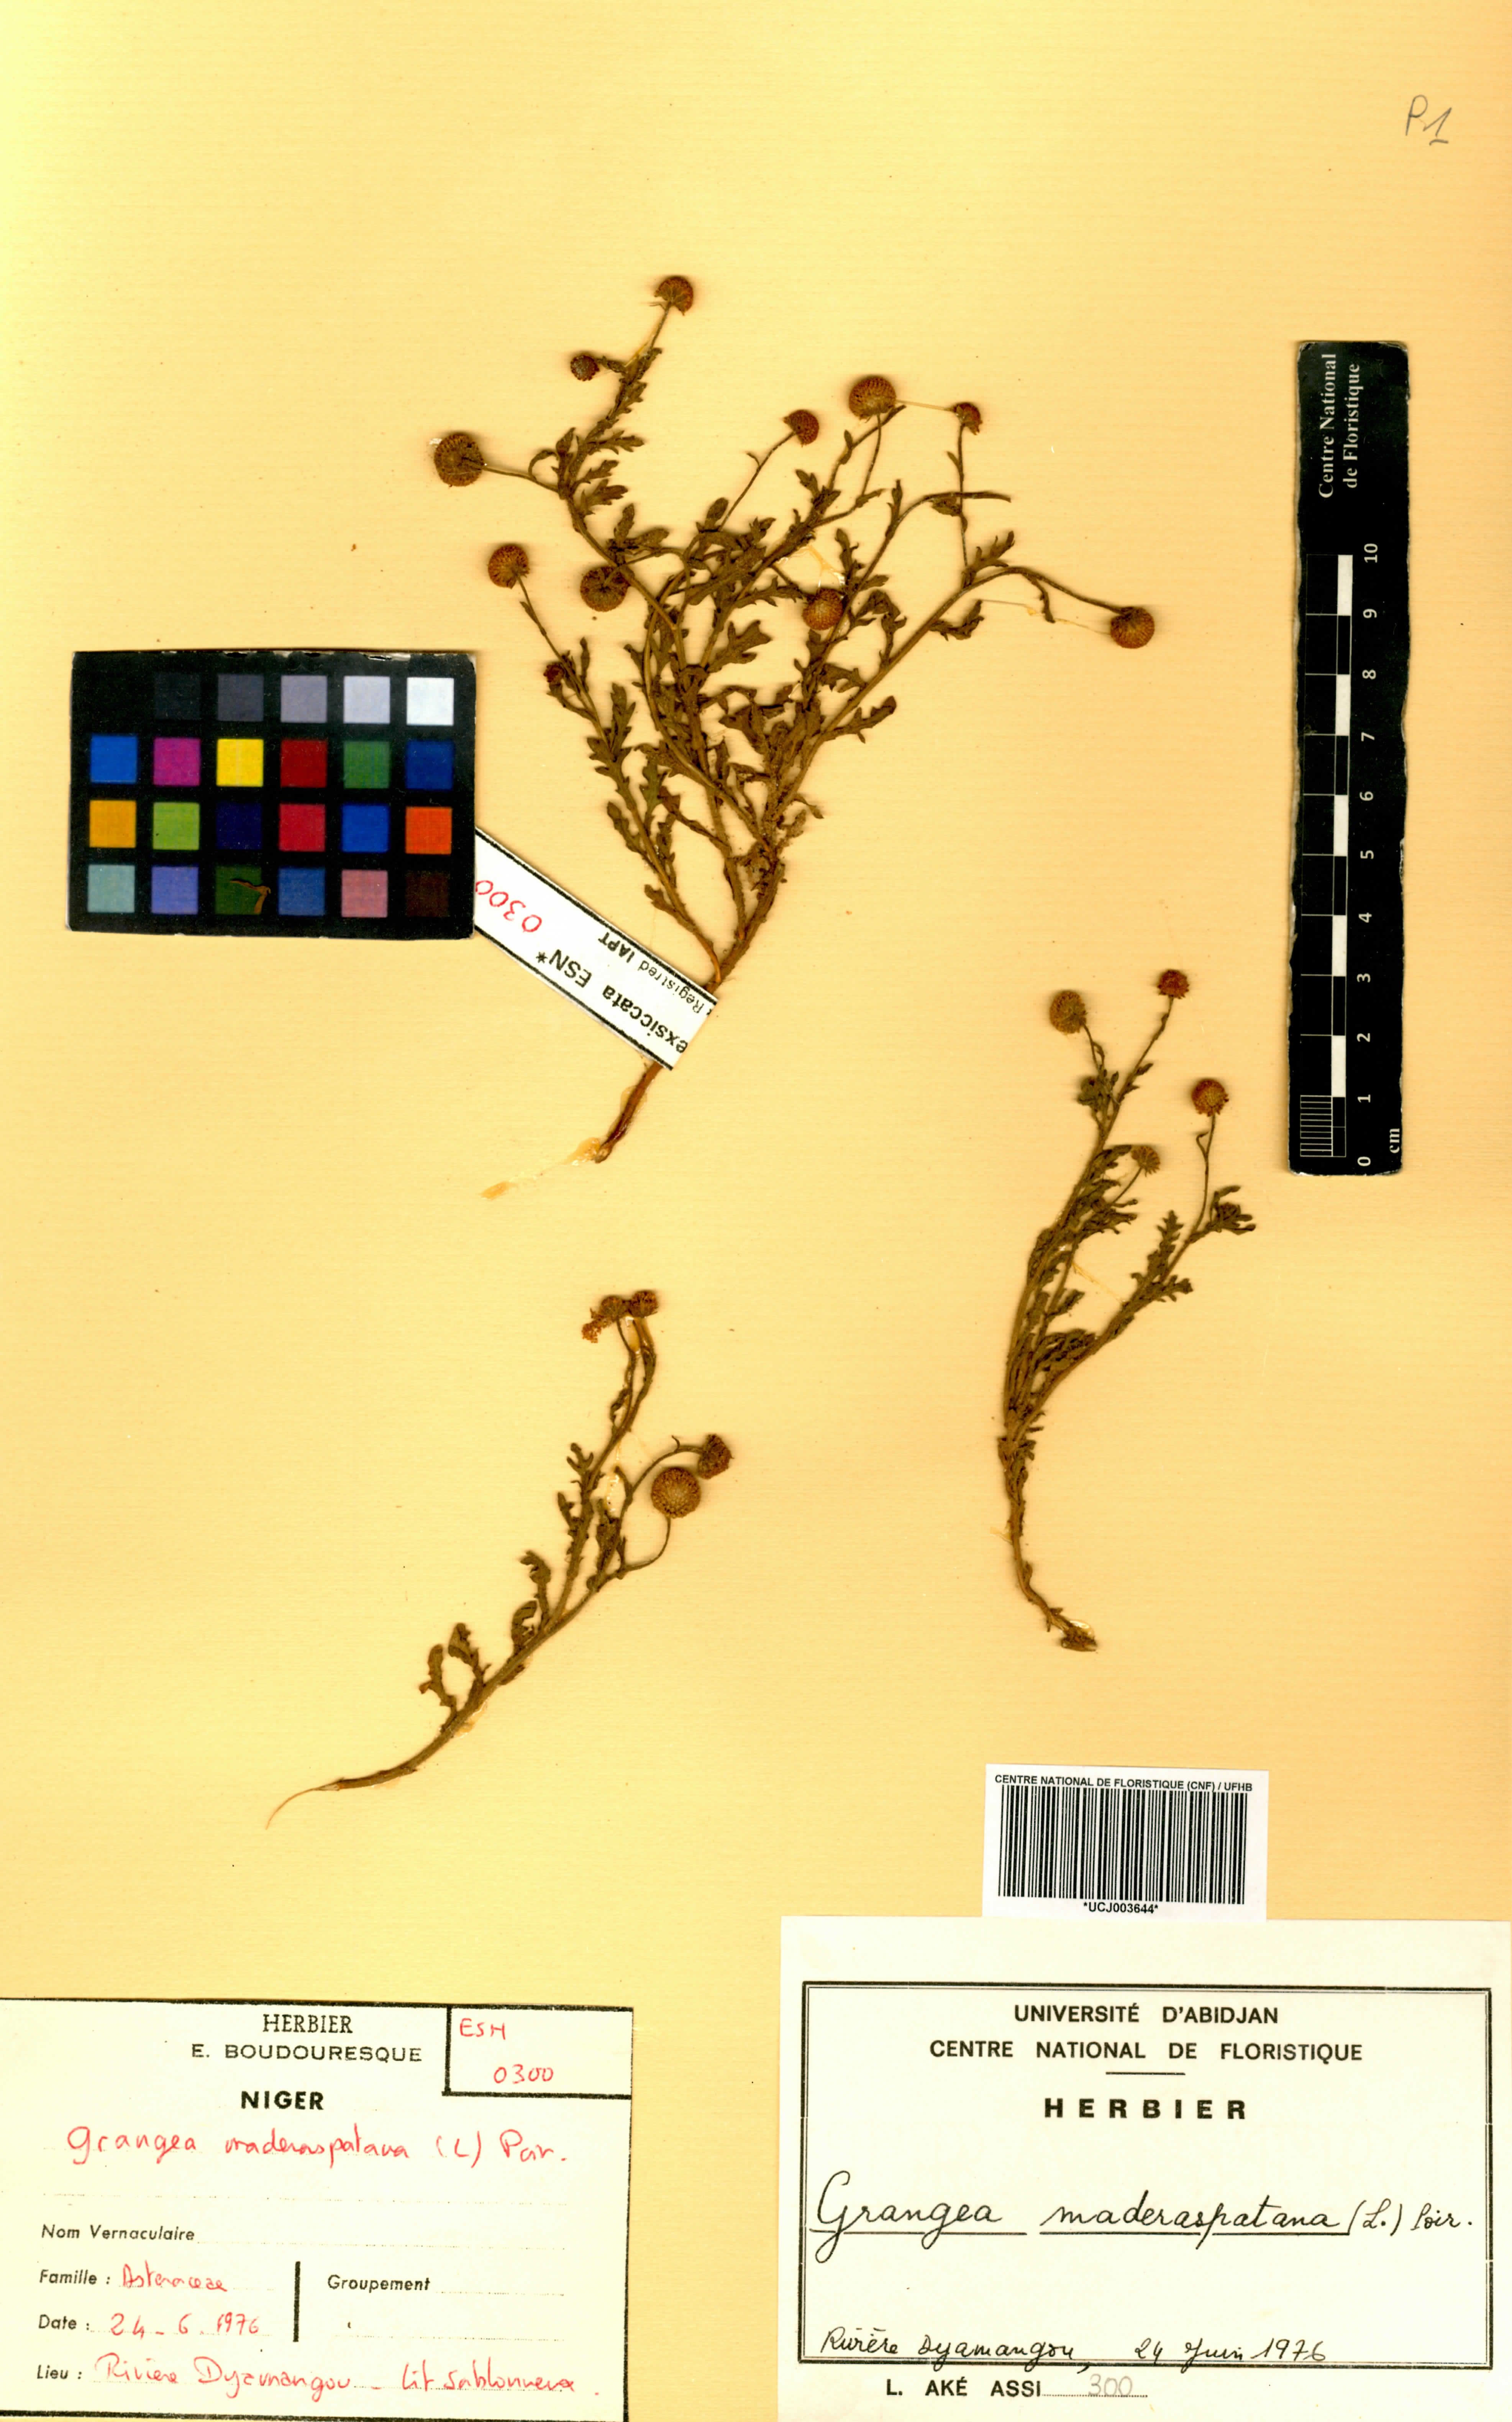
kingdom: Plantae
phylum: Tracheophyta
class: Magnoliopsida
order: Asterales
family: Asteraceae
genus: Grangea
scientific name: Grangea maderaspatana
